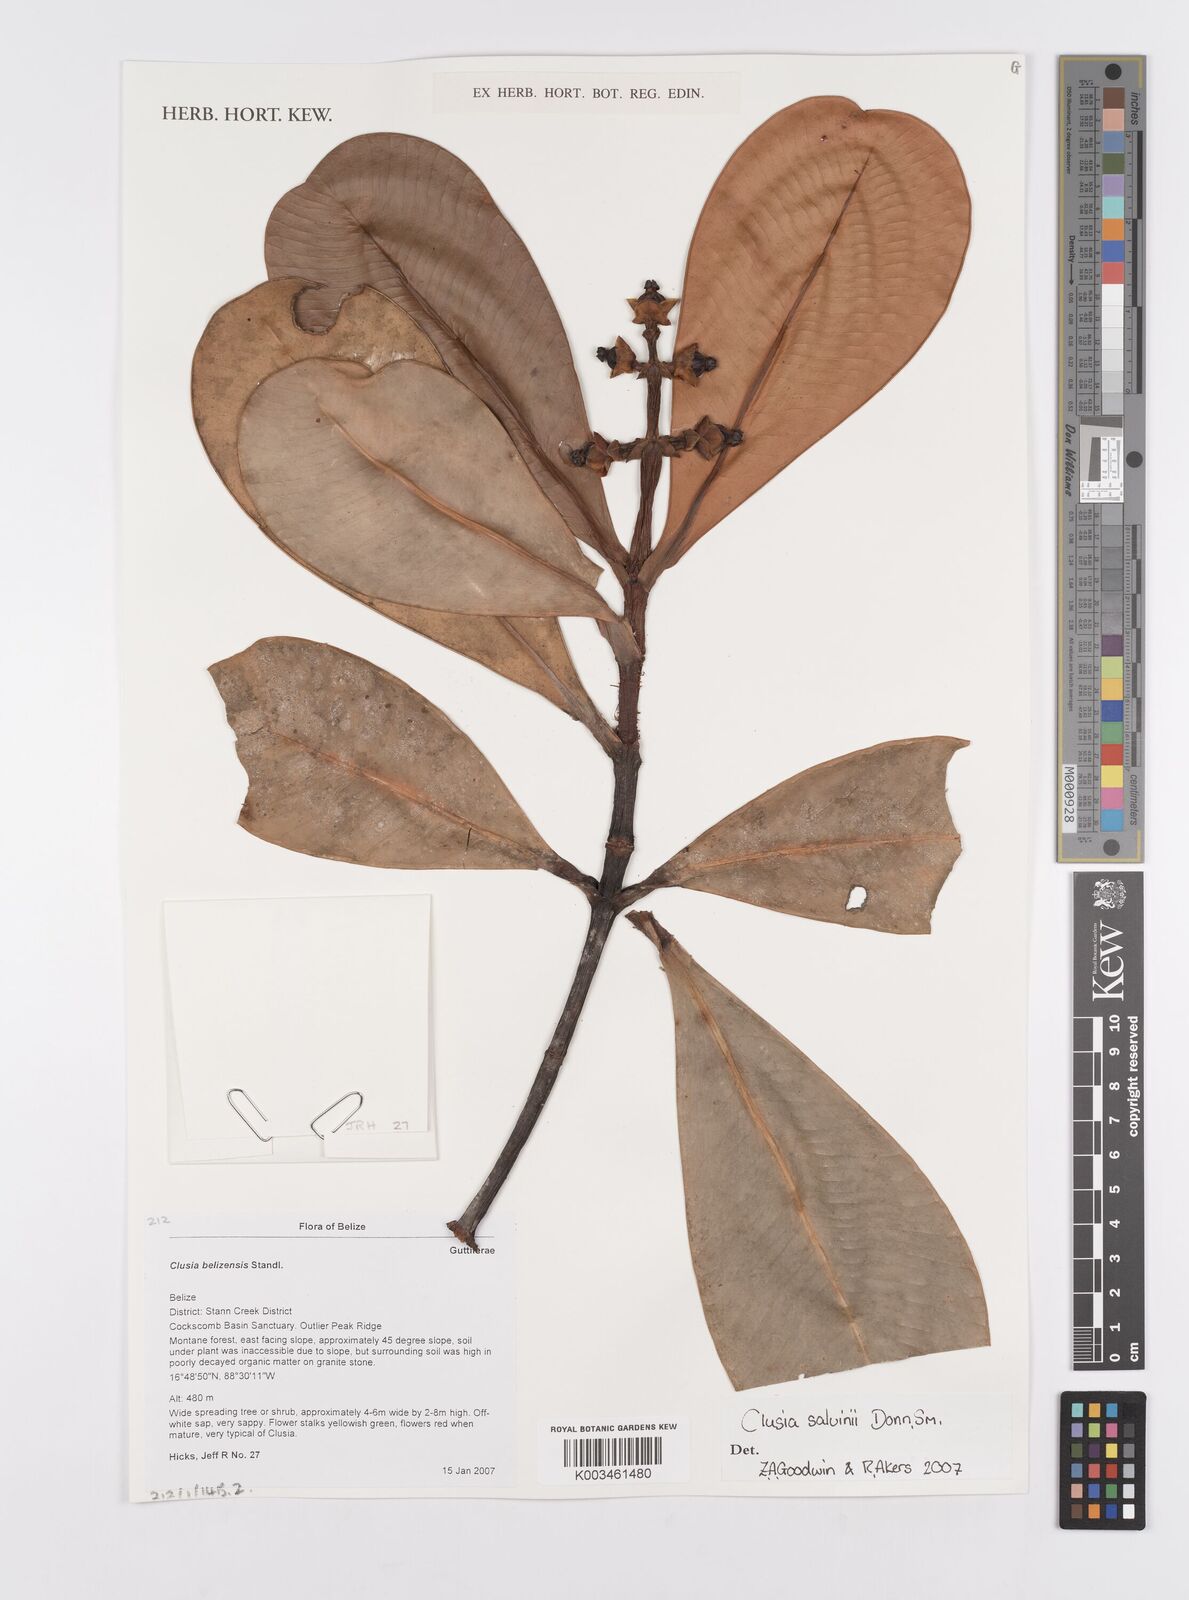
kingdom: Plantae
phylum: Tracheophyta
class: Magnoliopsida
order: Malpighiales
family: Clusiaceae
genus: Clusia
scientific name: Clusia salvinii
